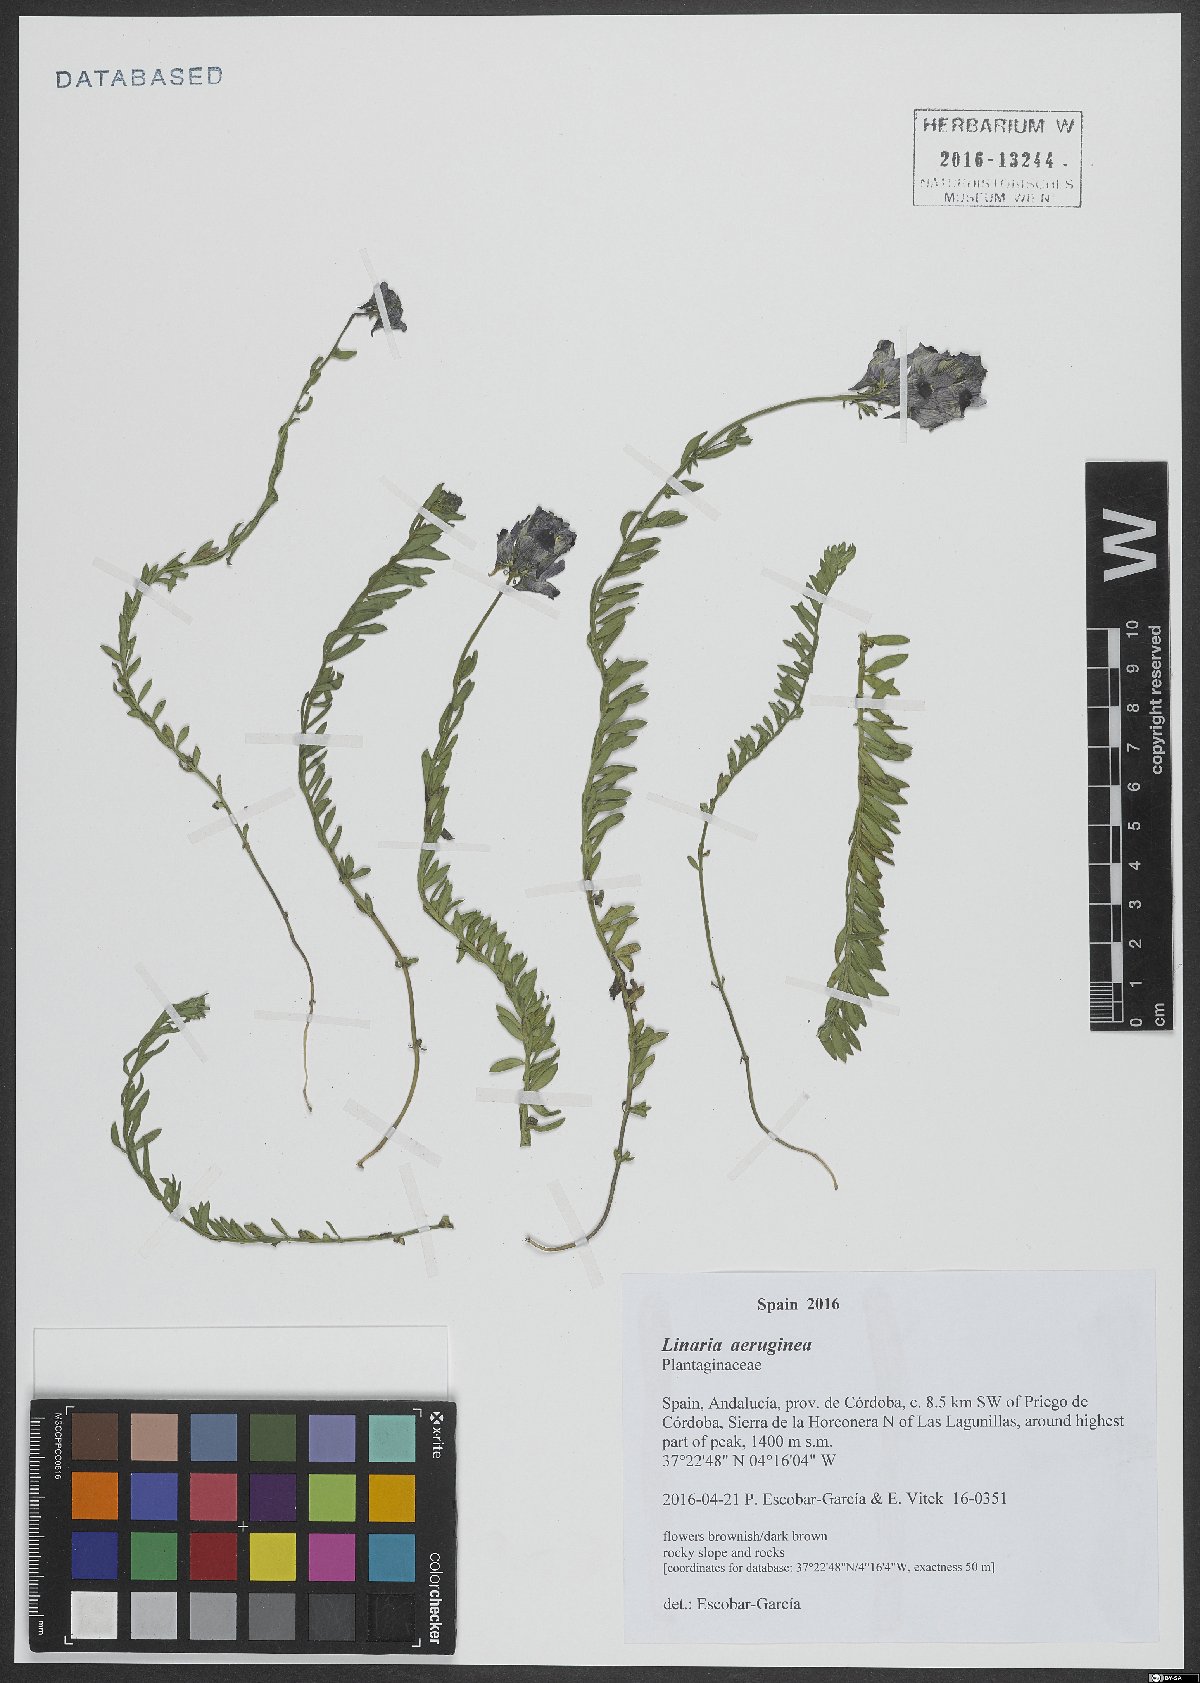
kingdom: Plantae
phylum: Tracheophyta
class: Magnoliopsida
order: Lamiales
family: Plantaginaceae
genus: Linaria
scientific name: Linaria aeruginea
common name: Roadside toadflax
